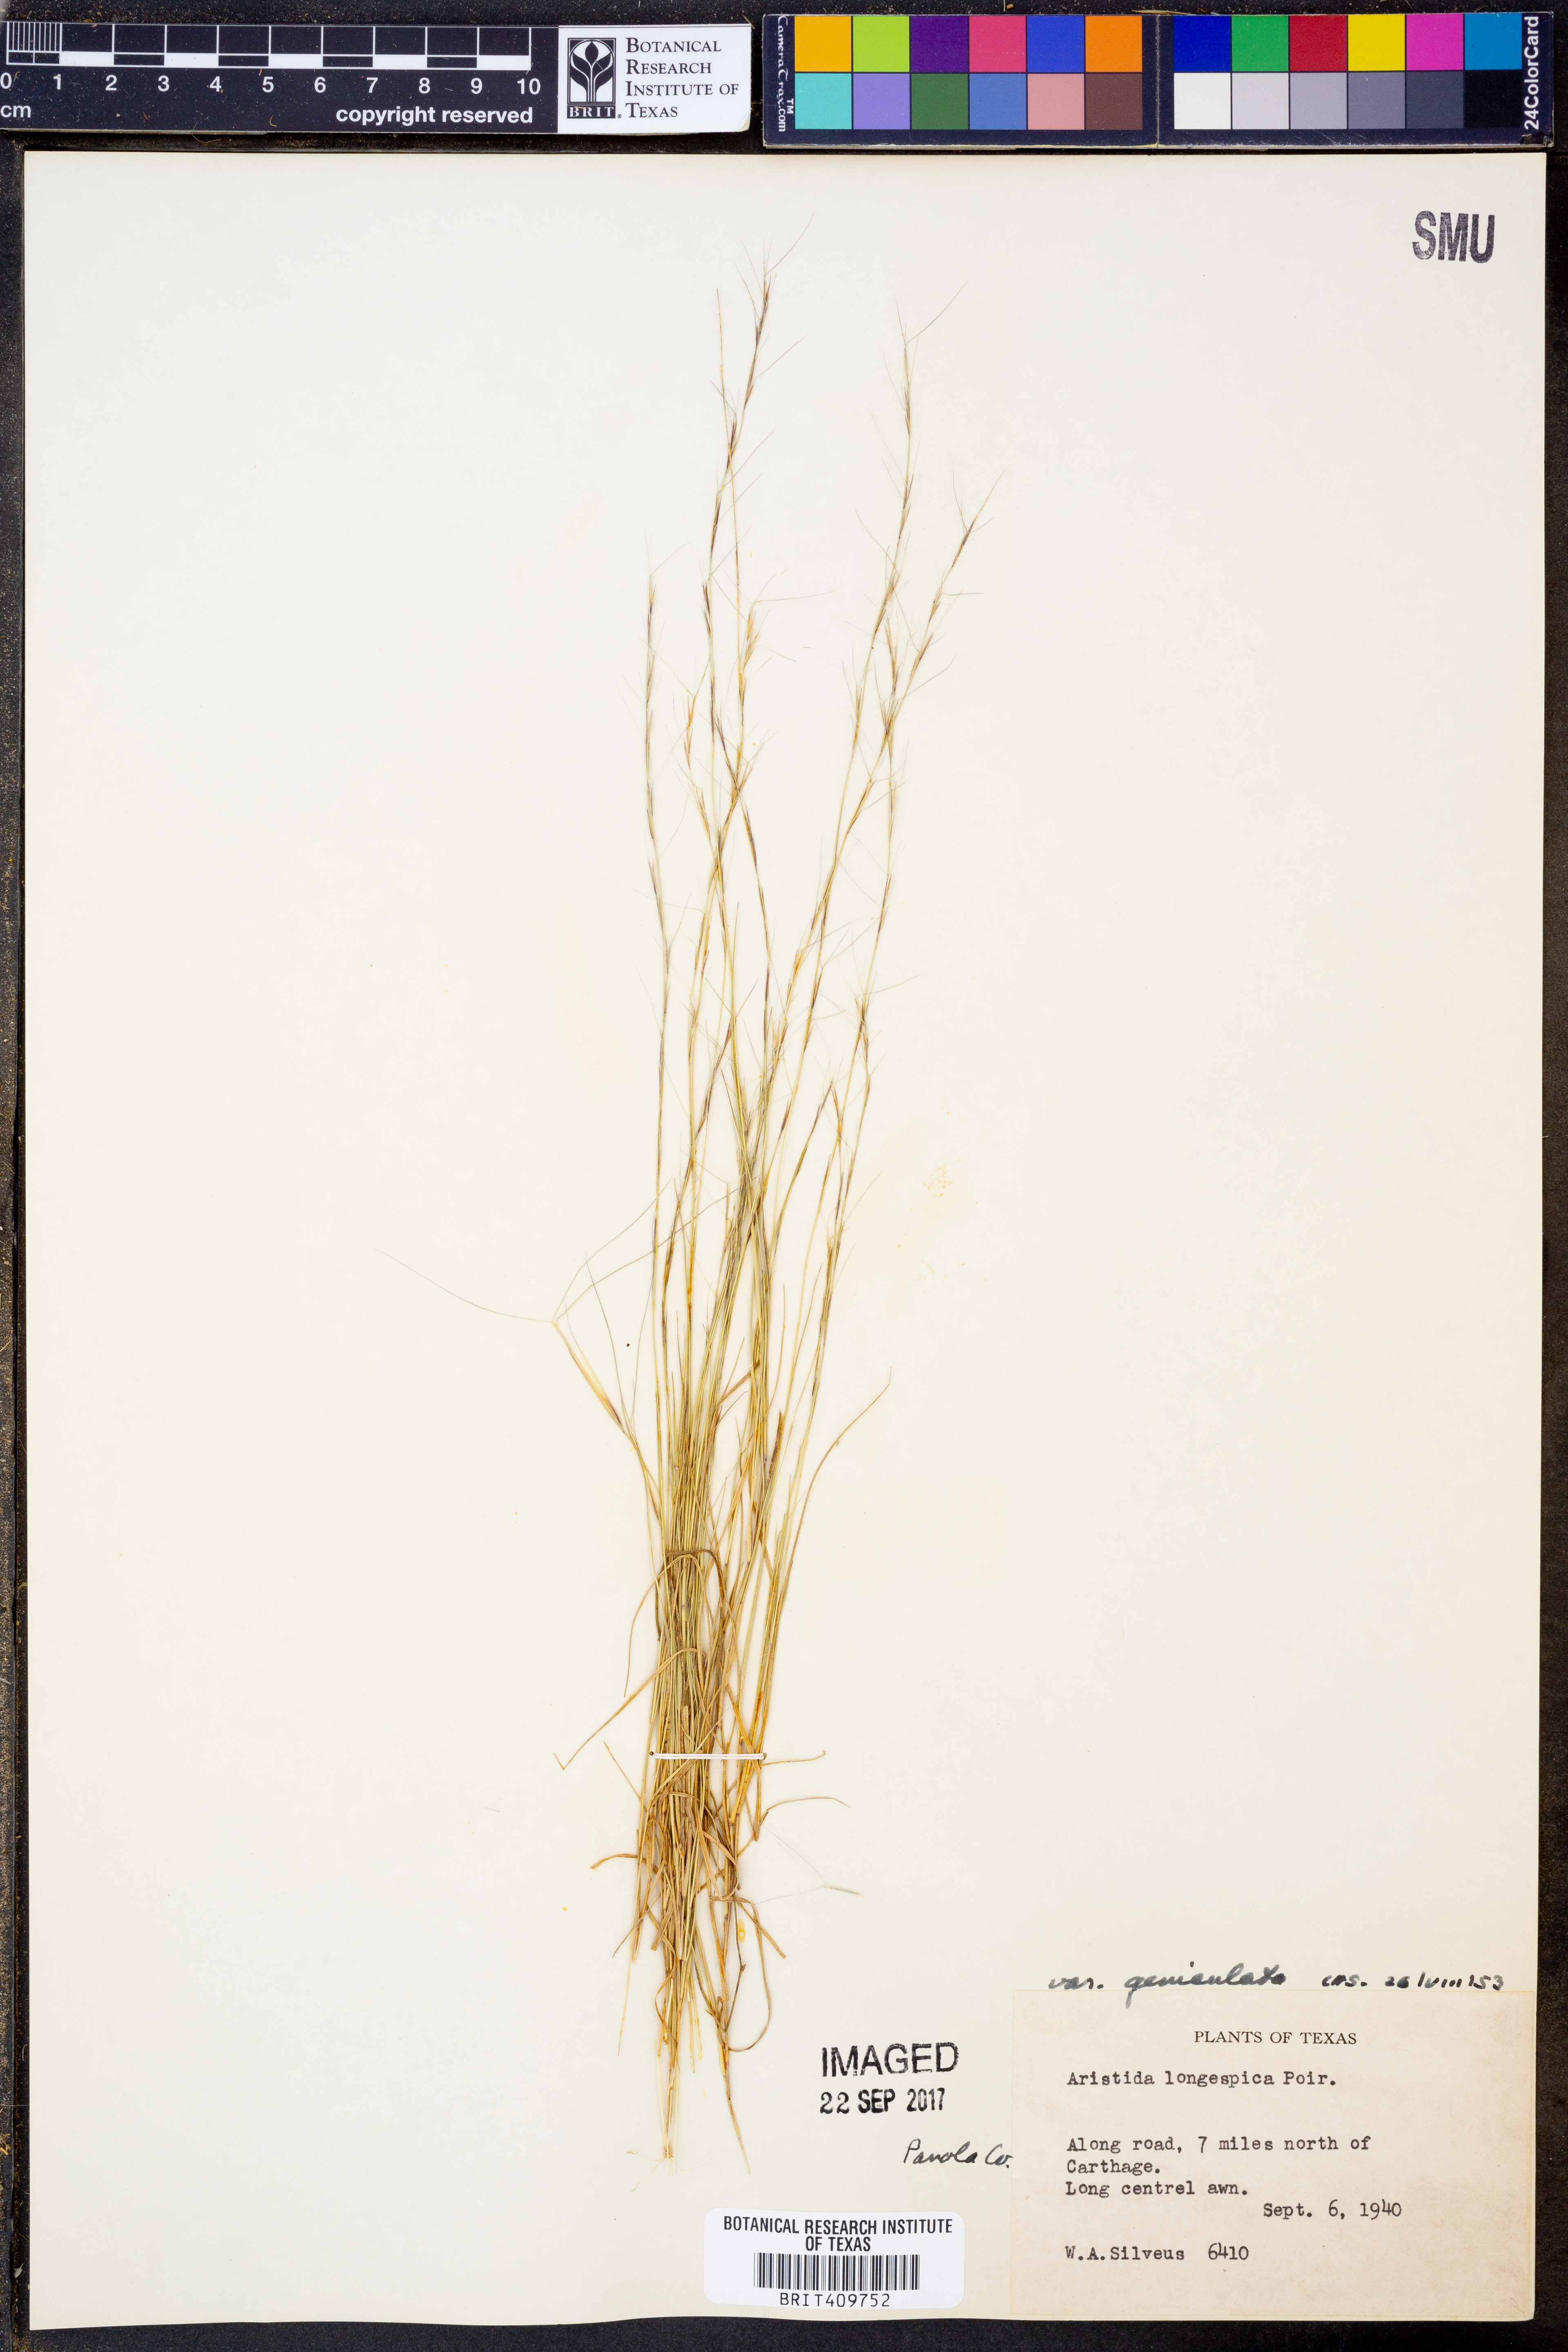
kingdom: Plantae
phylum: Tracheophyta
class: Liliopsida
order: Poales
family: Poaceae
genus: Aristida
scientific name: Aristida longespica
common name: Long-spiked triple-awned grass
